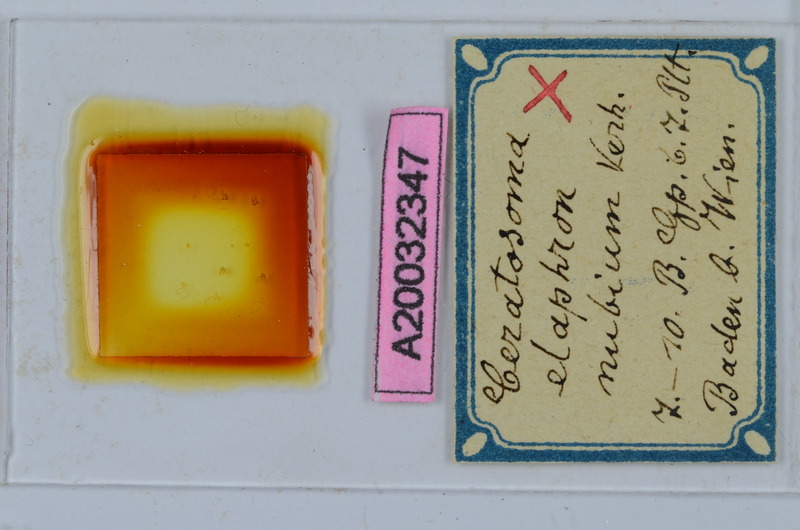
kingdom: Animalia
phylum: Arthropoda
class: Diplopoda
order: Chordeumatida
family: Craspedosomatidae
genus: Euceratosoma
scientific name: Euceratosoma elaphron
